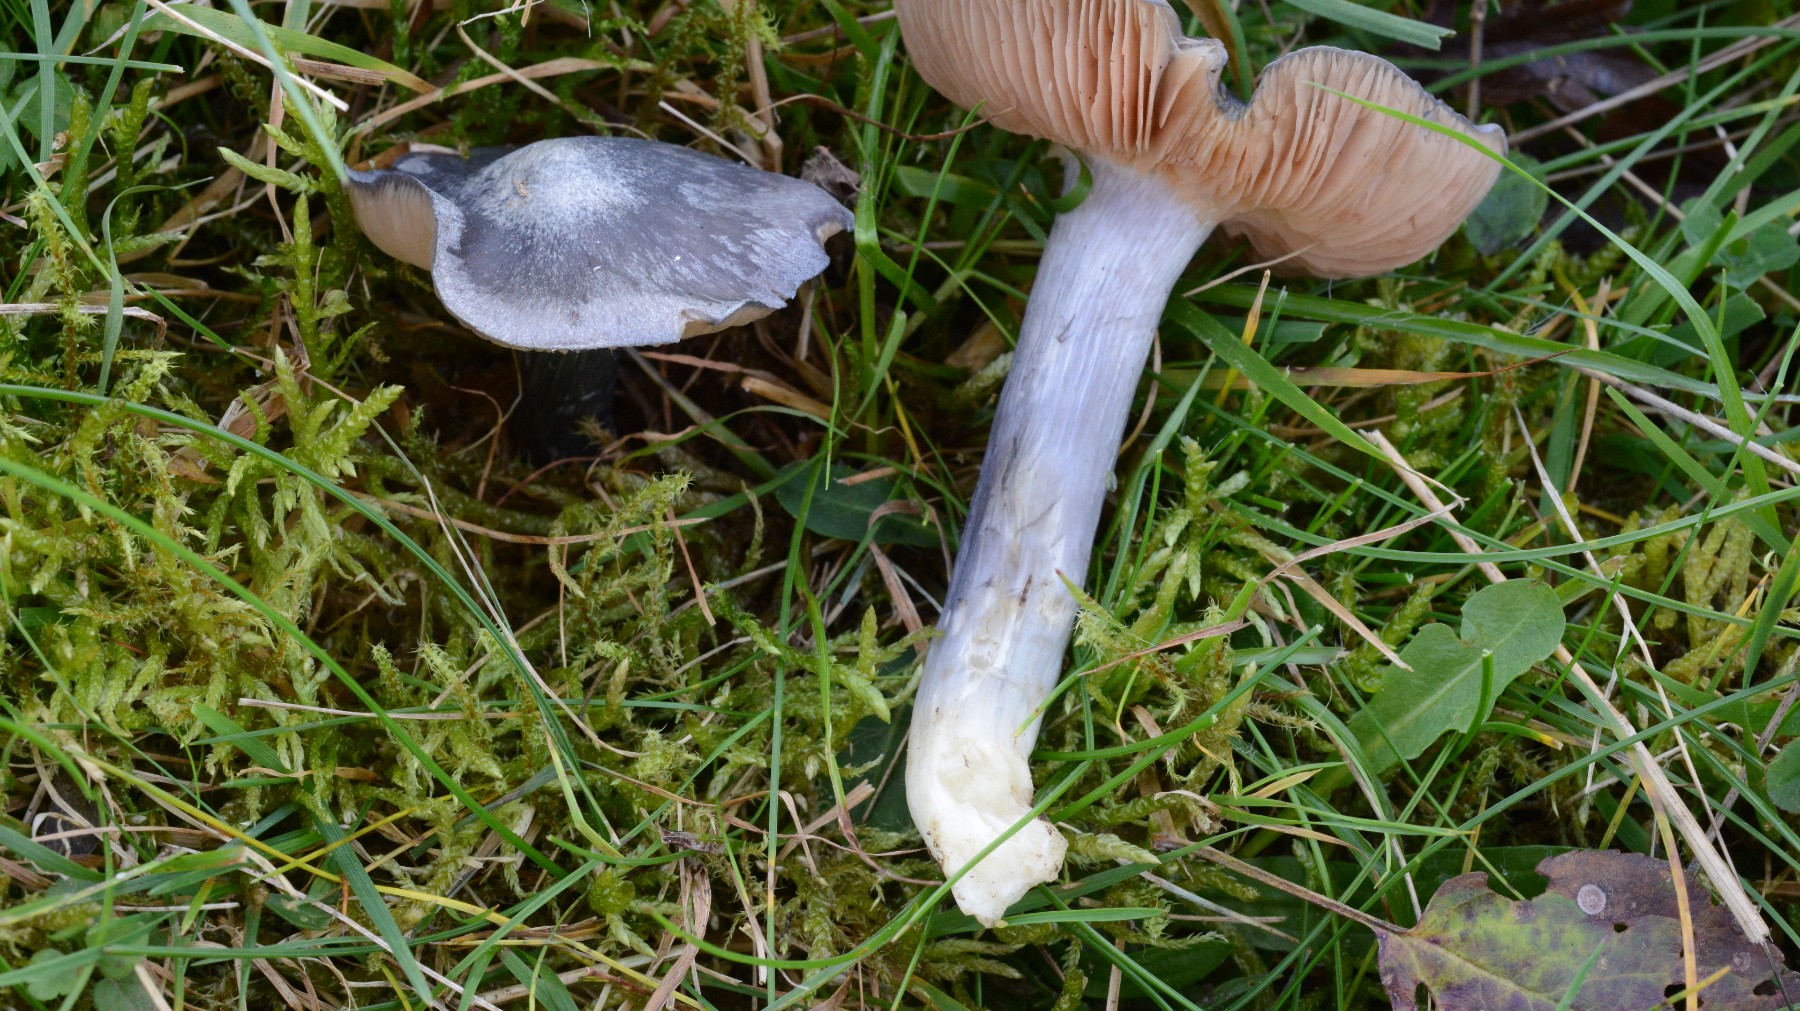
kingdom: Fungi
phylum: Basidiomycota
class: Agaricomycetes
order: Agaricales
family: Entolomataceae
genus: Entoloma
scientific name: Entoloma madidum
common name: indigo-rødblad
